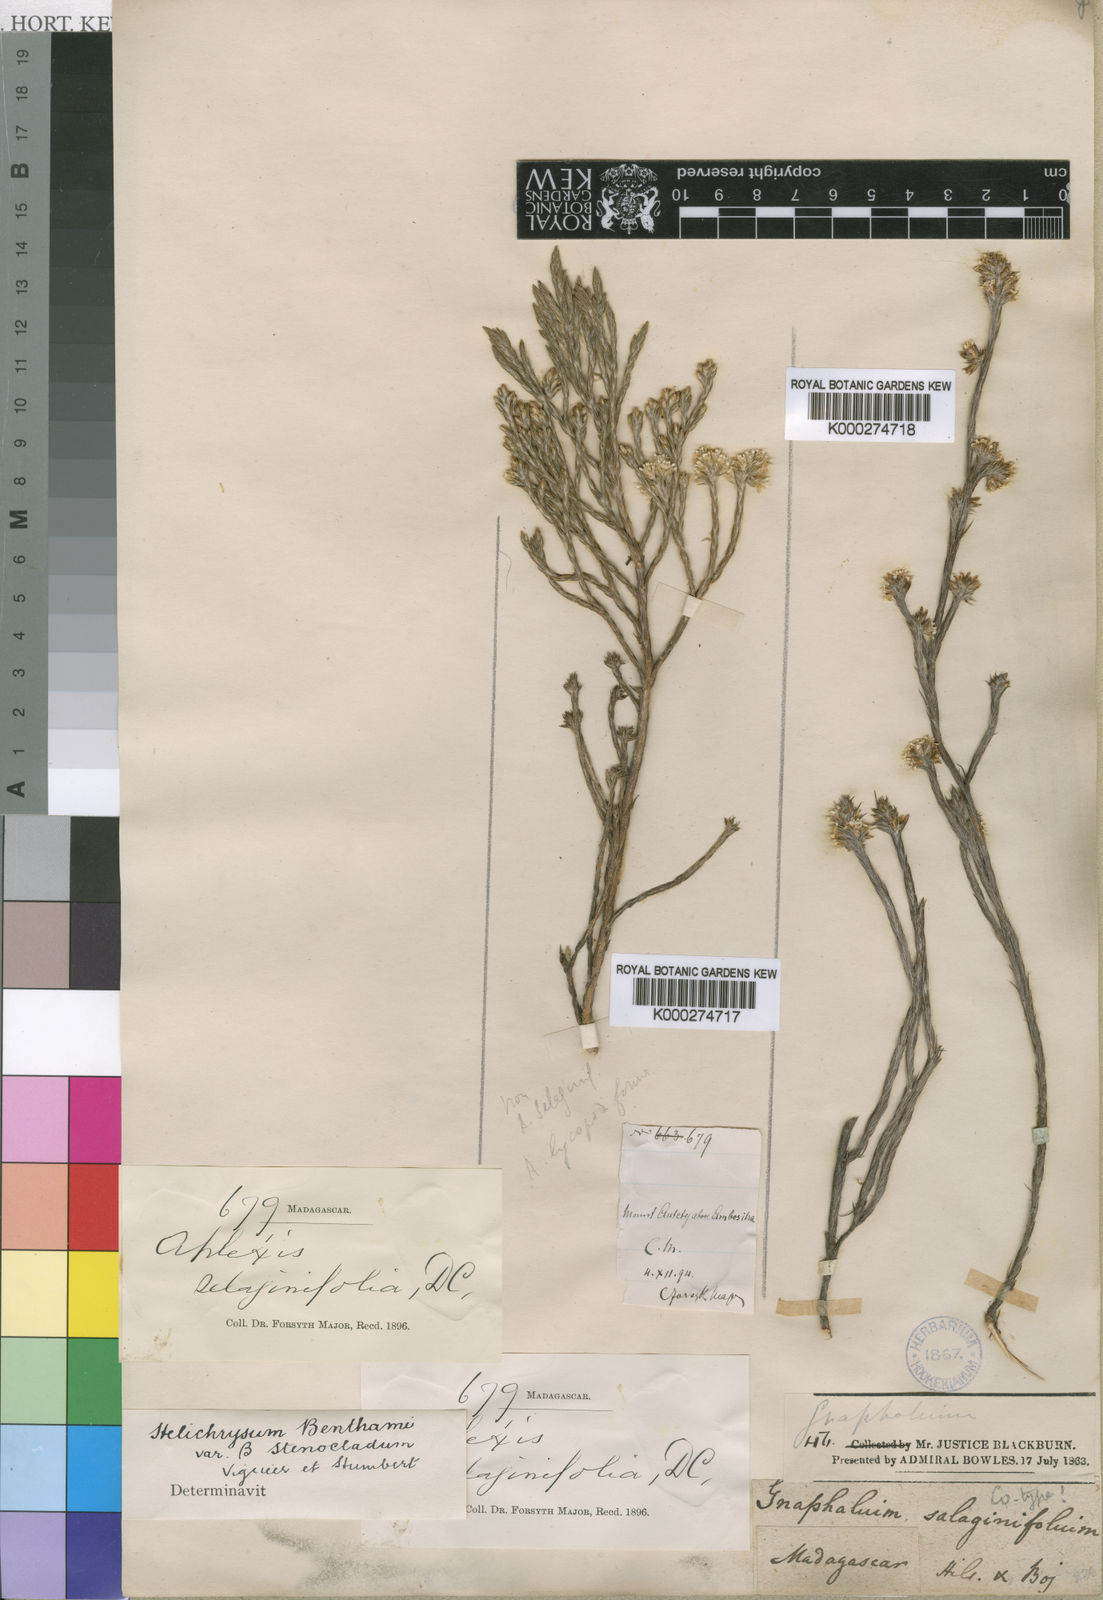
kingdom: Plantae
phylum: Tracheophyta
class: Magnoliopsida
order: Asterales
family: Asteraceae
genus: Helichrysum
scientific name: Helichrysum benthamii
